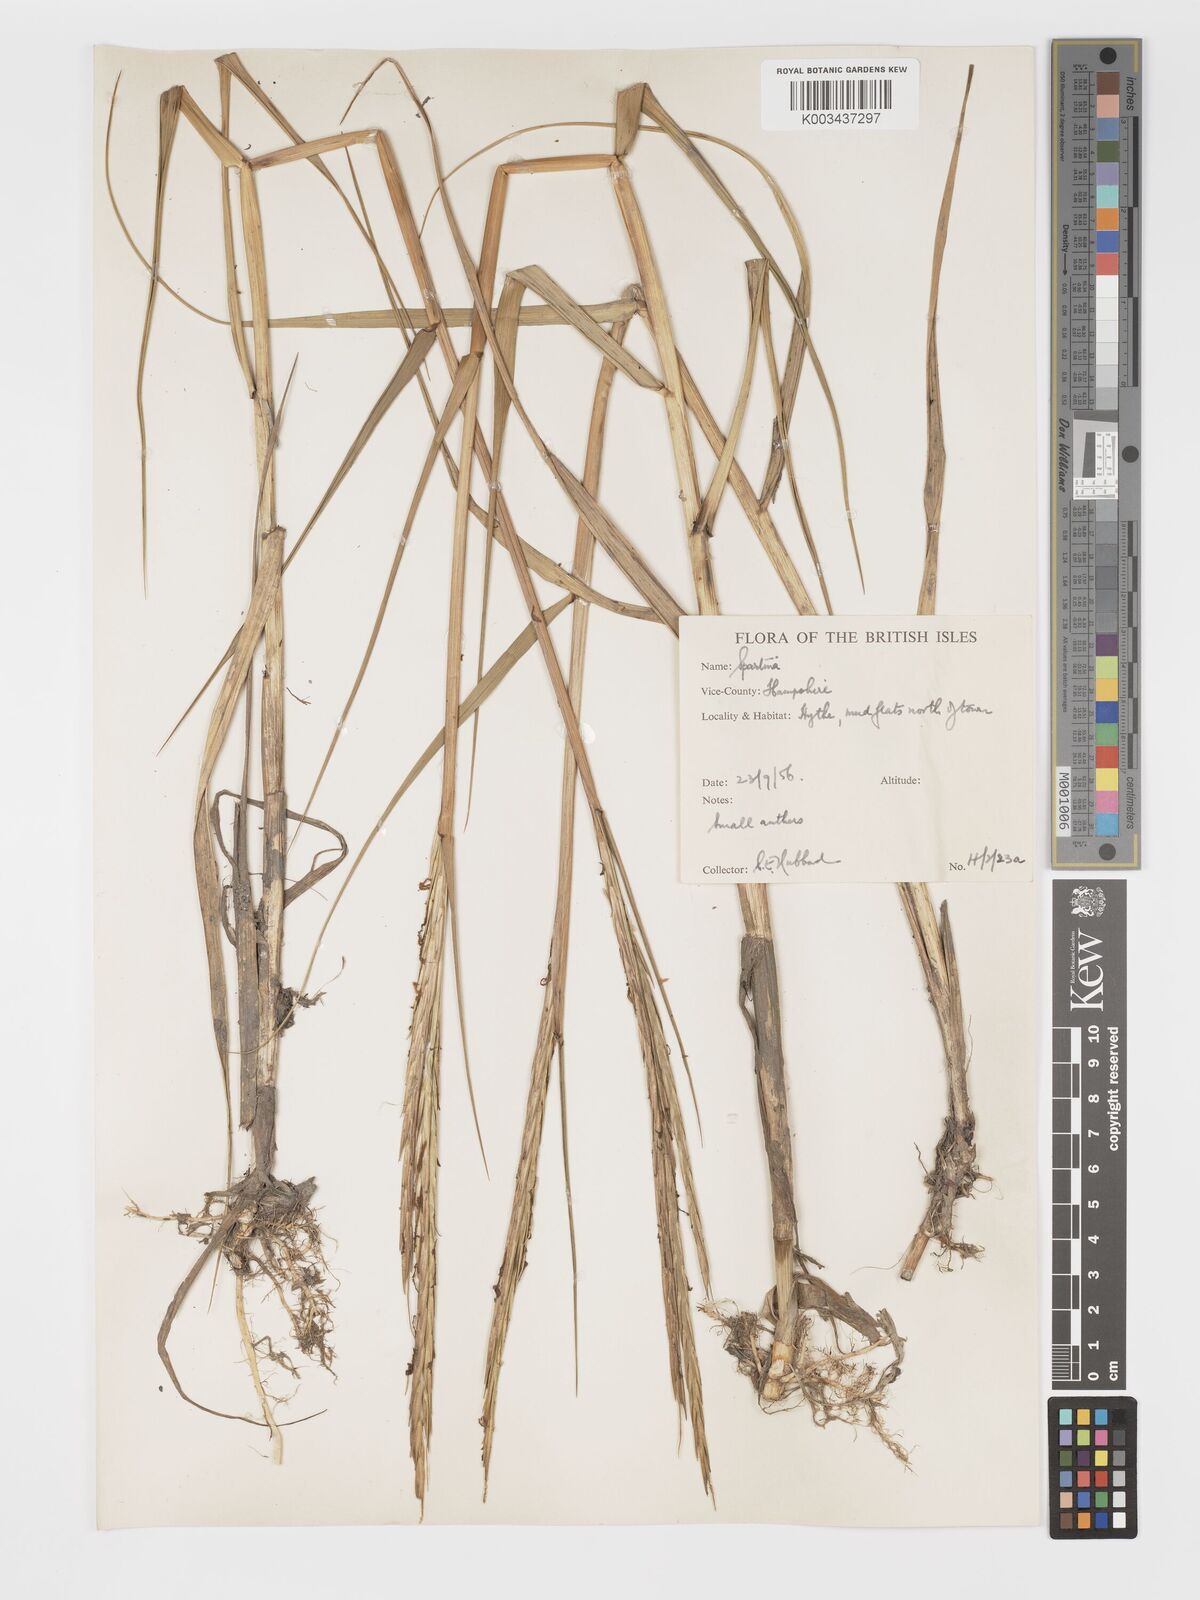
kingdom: Plantae
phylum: Tracheophyta
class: Liliopsida
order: Poales
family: Poaceae
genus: Sporobolus
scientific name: Sporobolus townsendii
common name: Townsend's cordgrass
